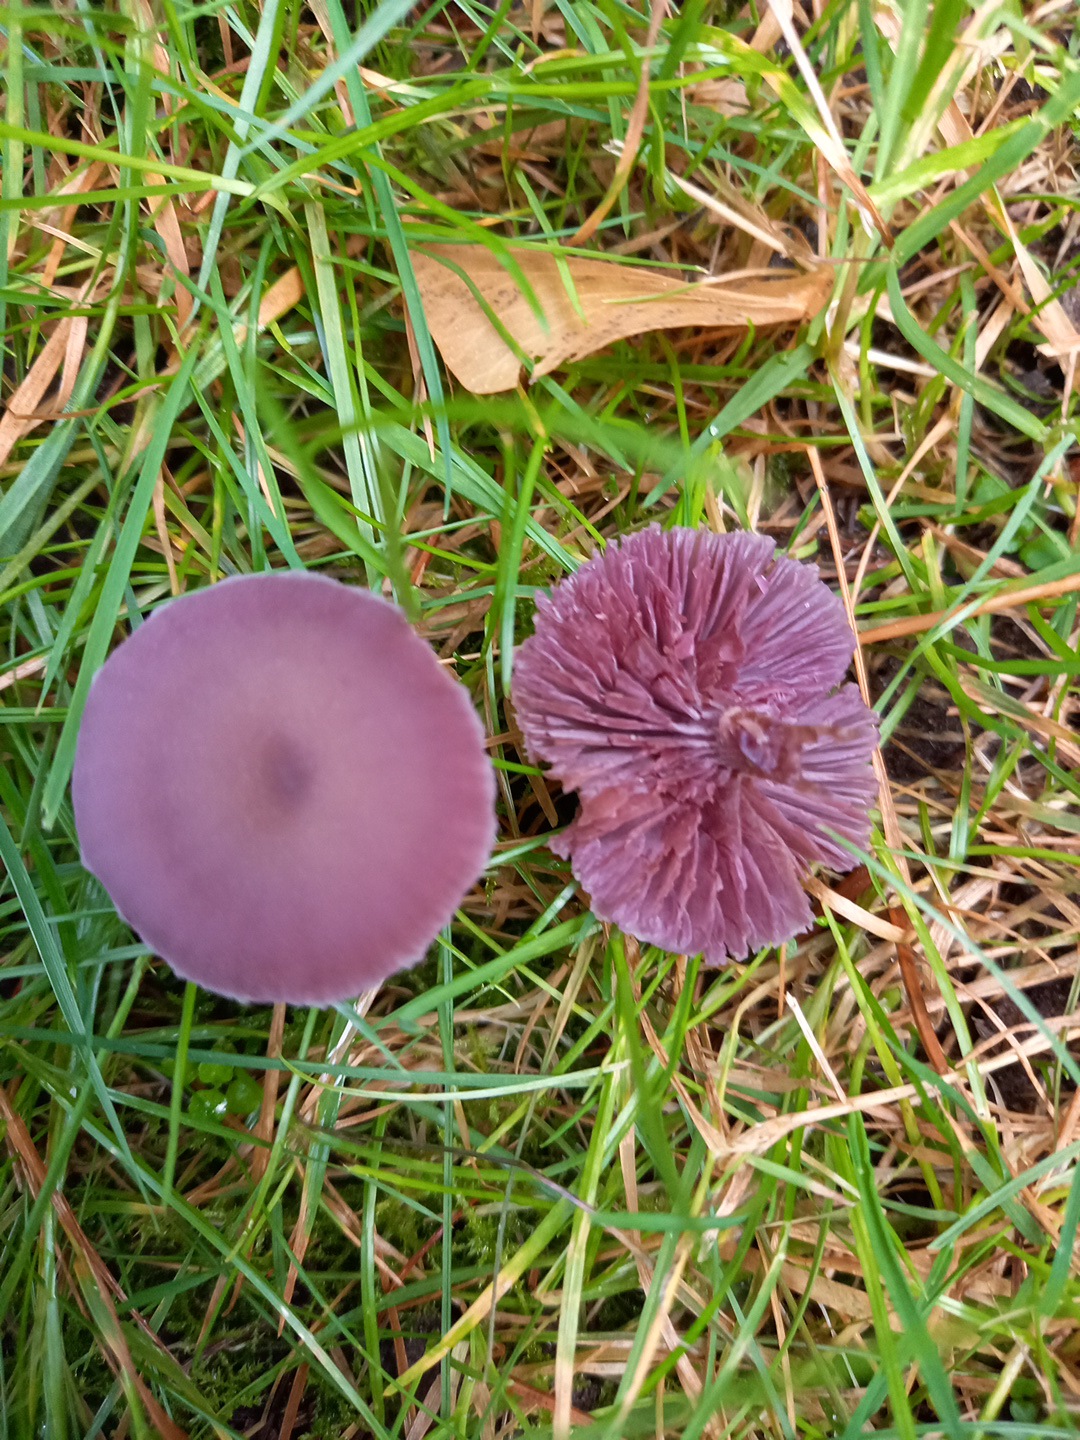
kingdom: Fungi
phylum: Basidiomycota
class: Agaricomycetes
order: Agaricales
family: Hydnangiaceae
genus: Laccaria
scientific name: Laccaria amethystina
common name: violet ametysthat
